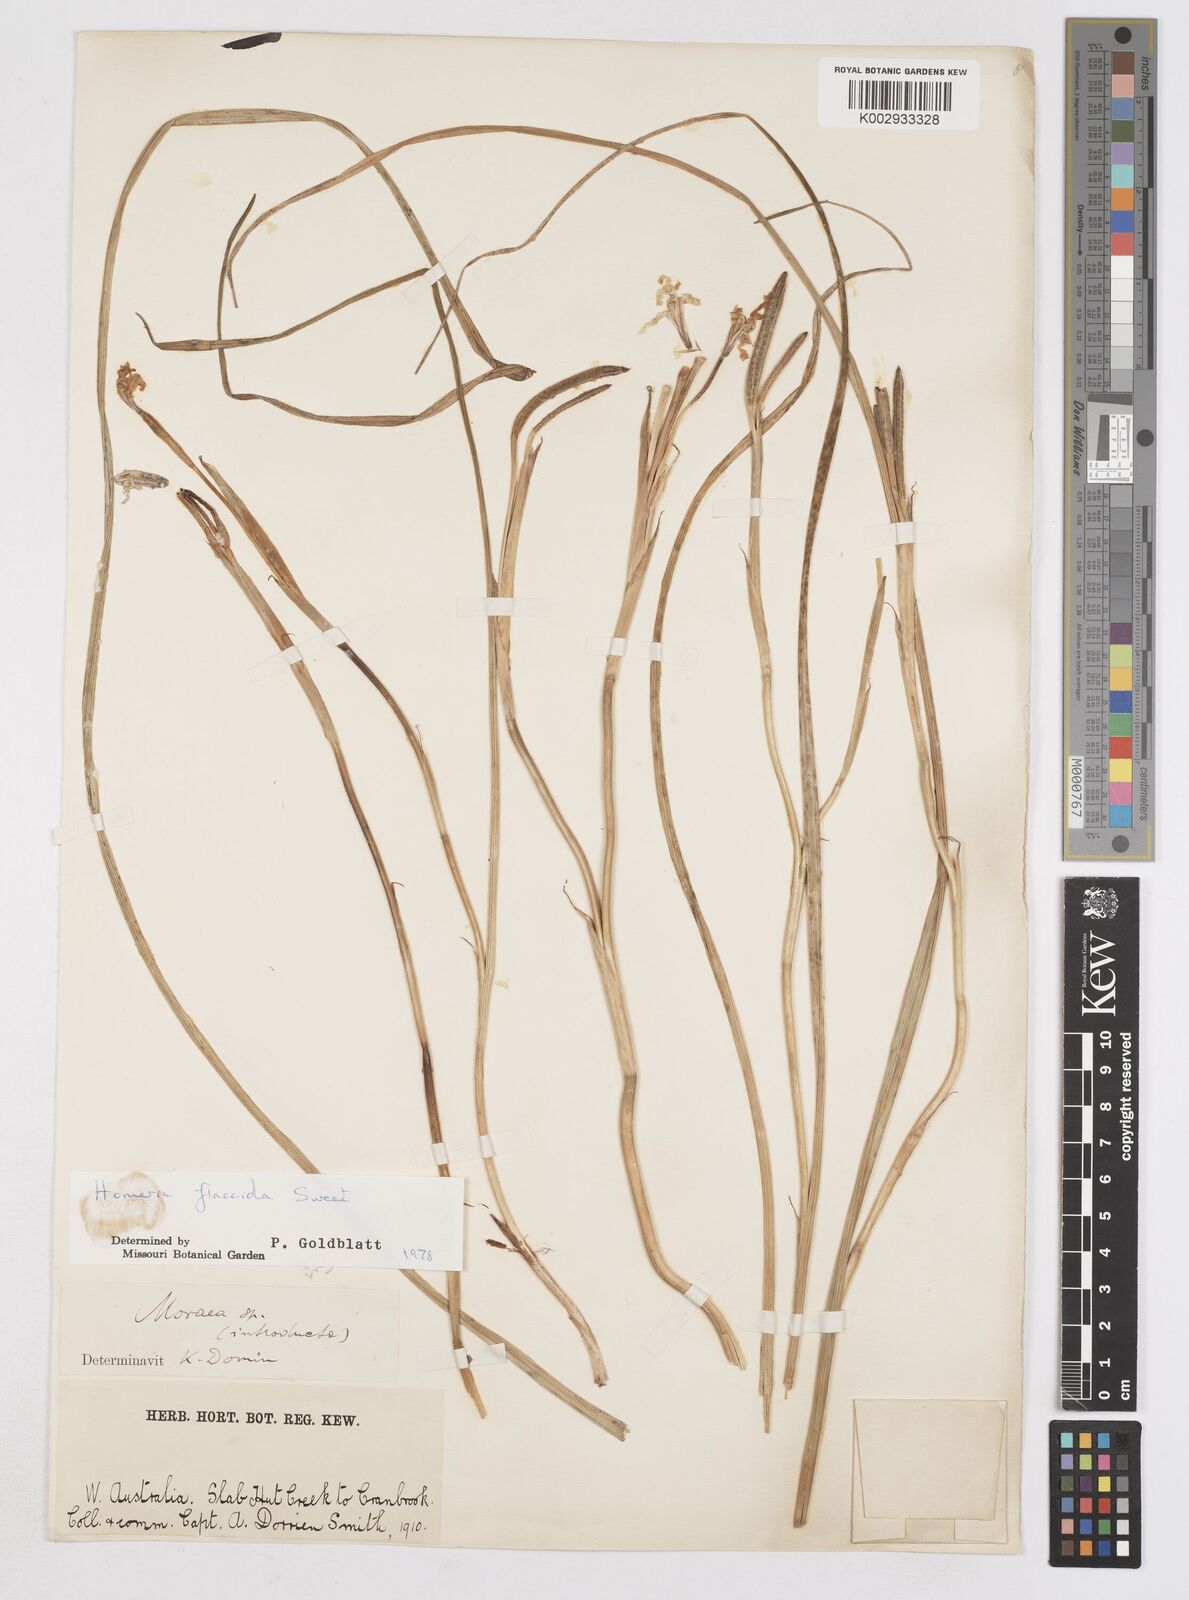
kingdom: Plantae
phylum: Tracheophyta
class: Liliopsida
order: Asparagales
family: Iridaceae
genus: Moraea
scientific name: Moraea flaccida
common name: One-leaf cape-tulip
